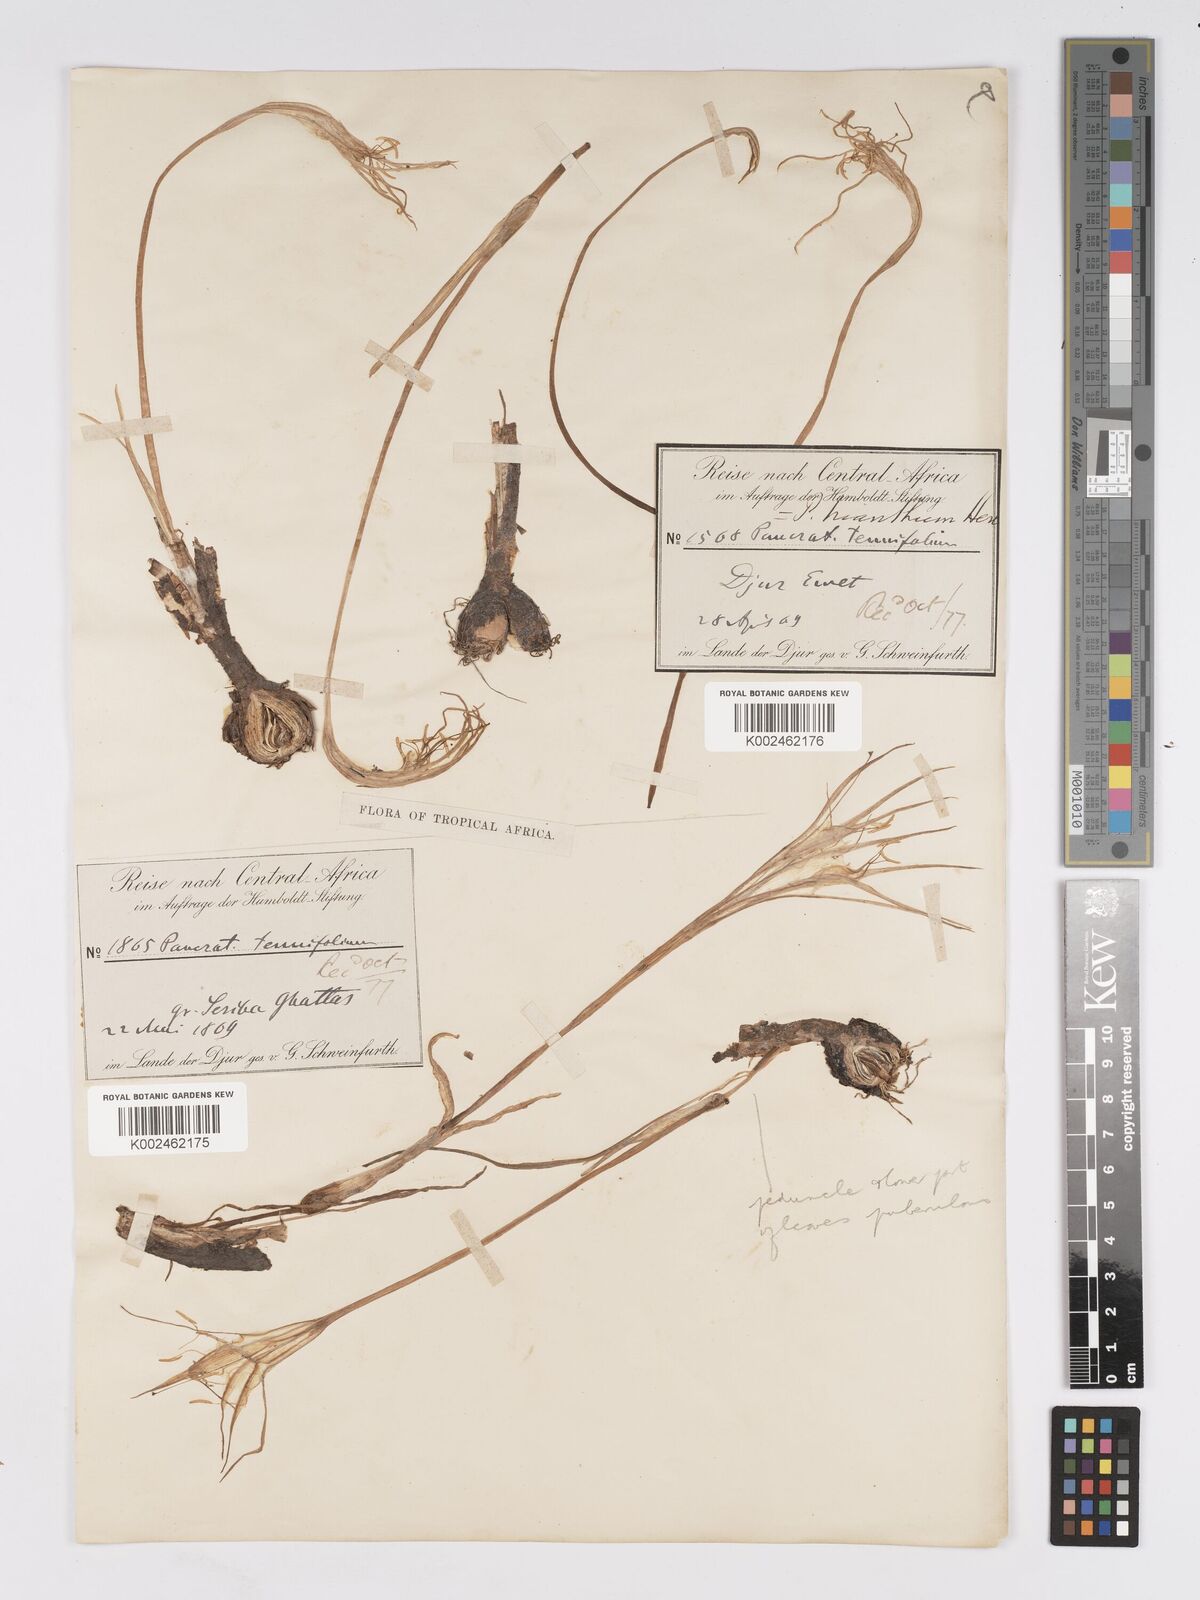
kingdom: Plantae
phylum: Tracheophyta
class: Liliopsida
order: Asparagales
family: Amaryllidaceae
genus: Pancratium
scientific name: Pancratium trianthum
